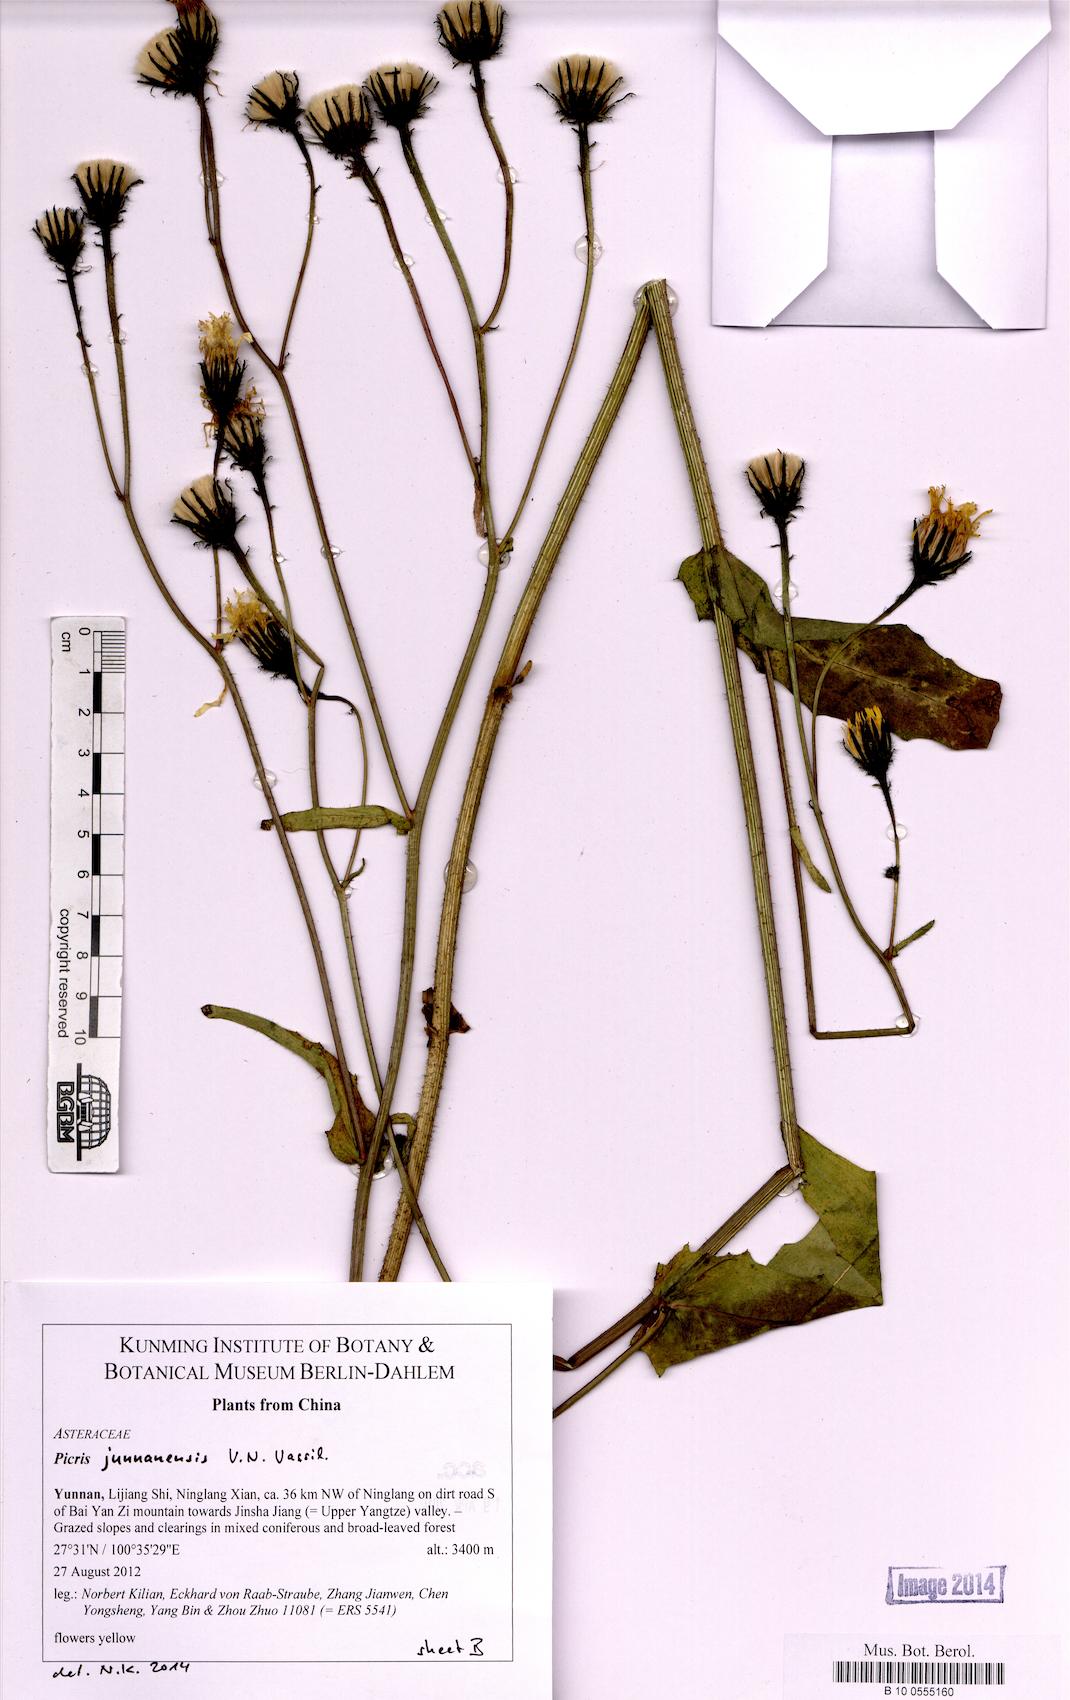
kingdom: Plantae
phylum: Tracheophyta
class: Magnoliopsida
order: Asterales
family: Asteraceae
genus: Picris
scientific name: Picris junnanensis
